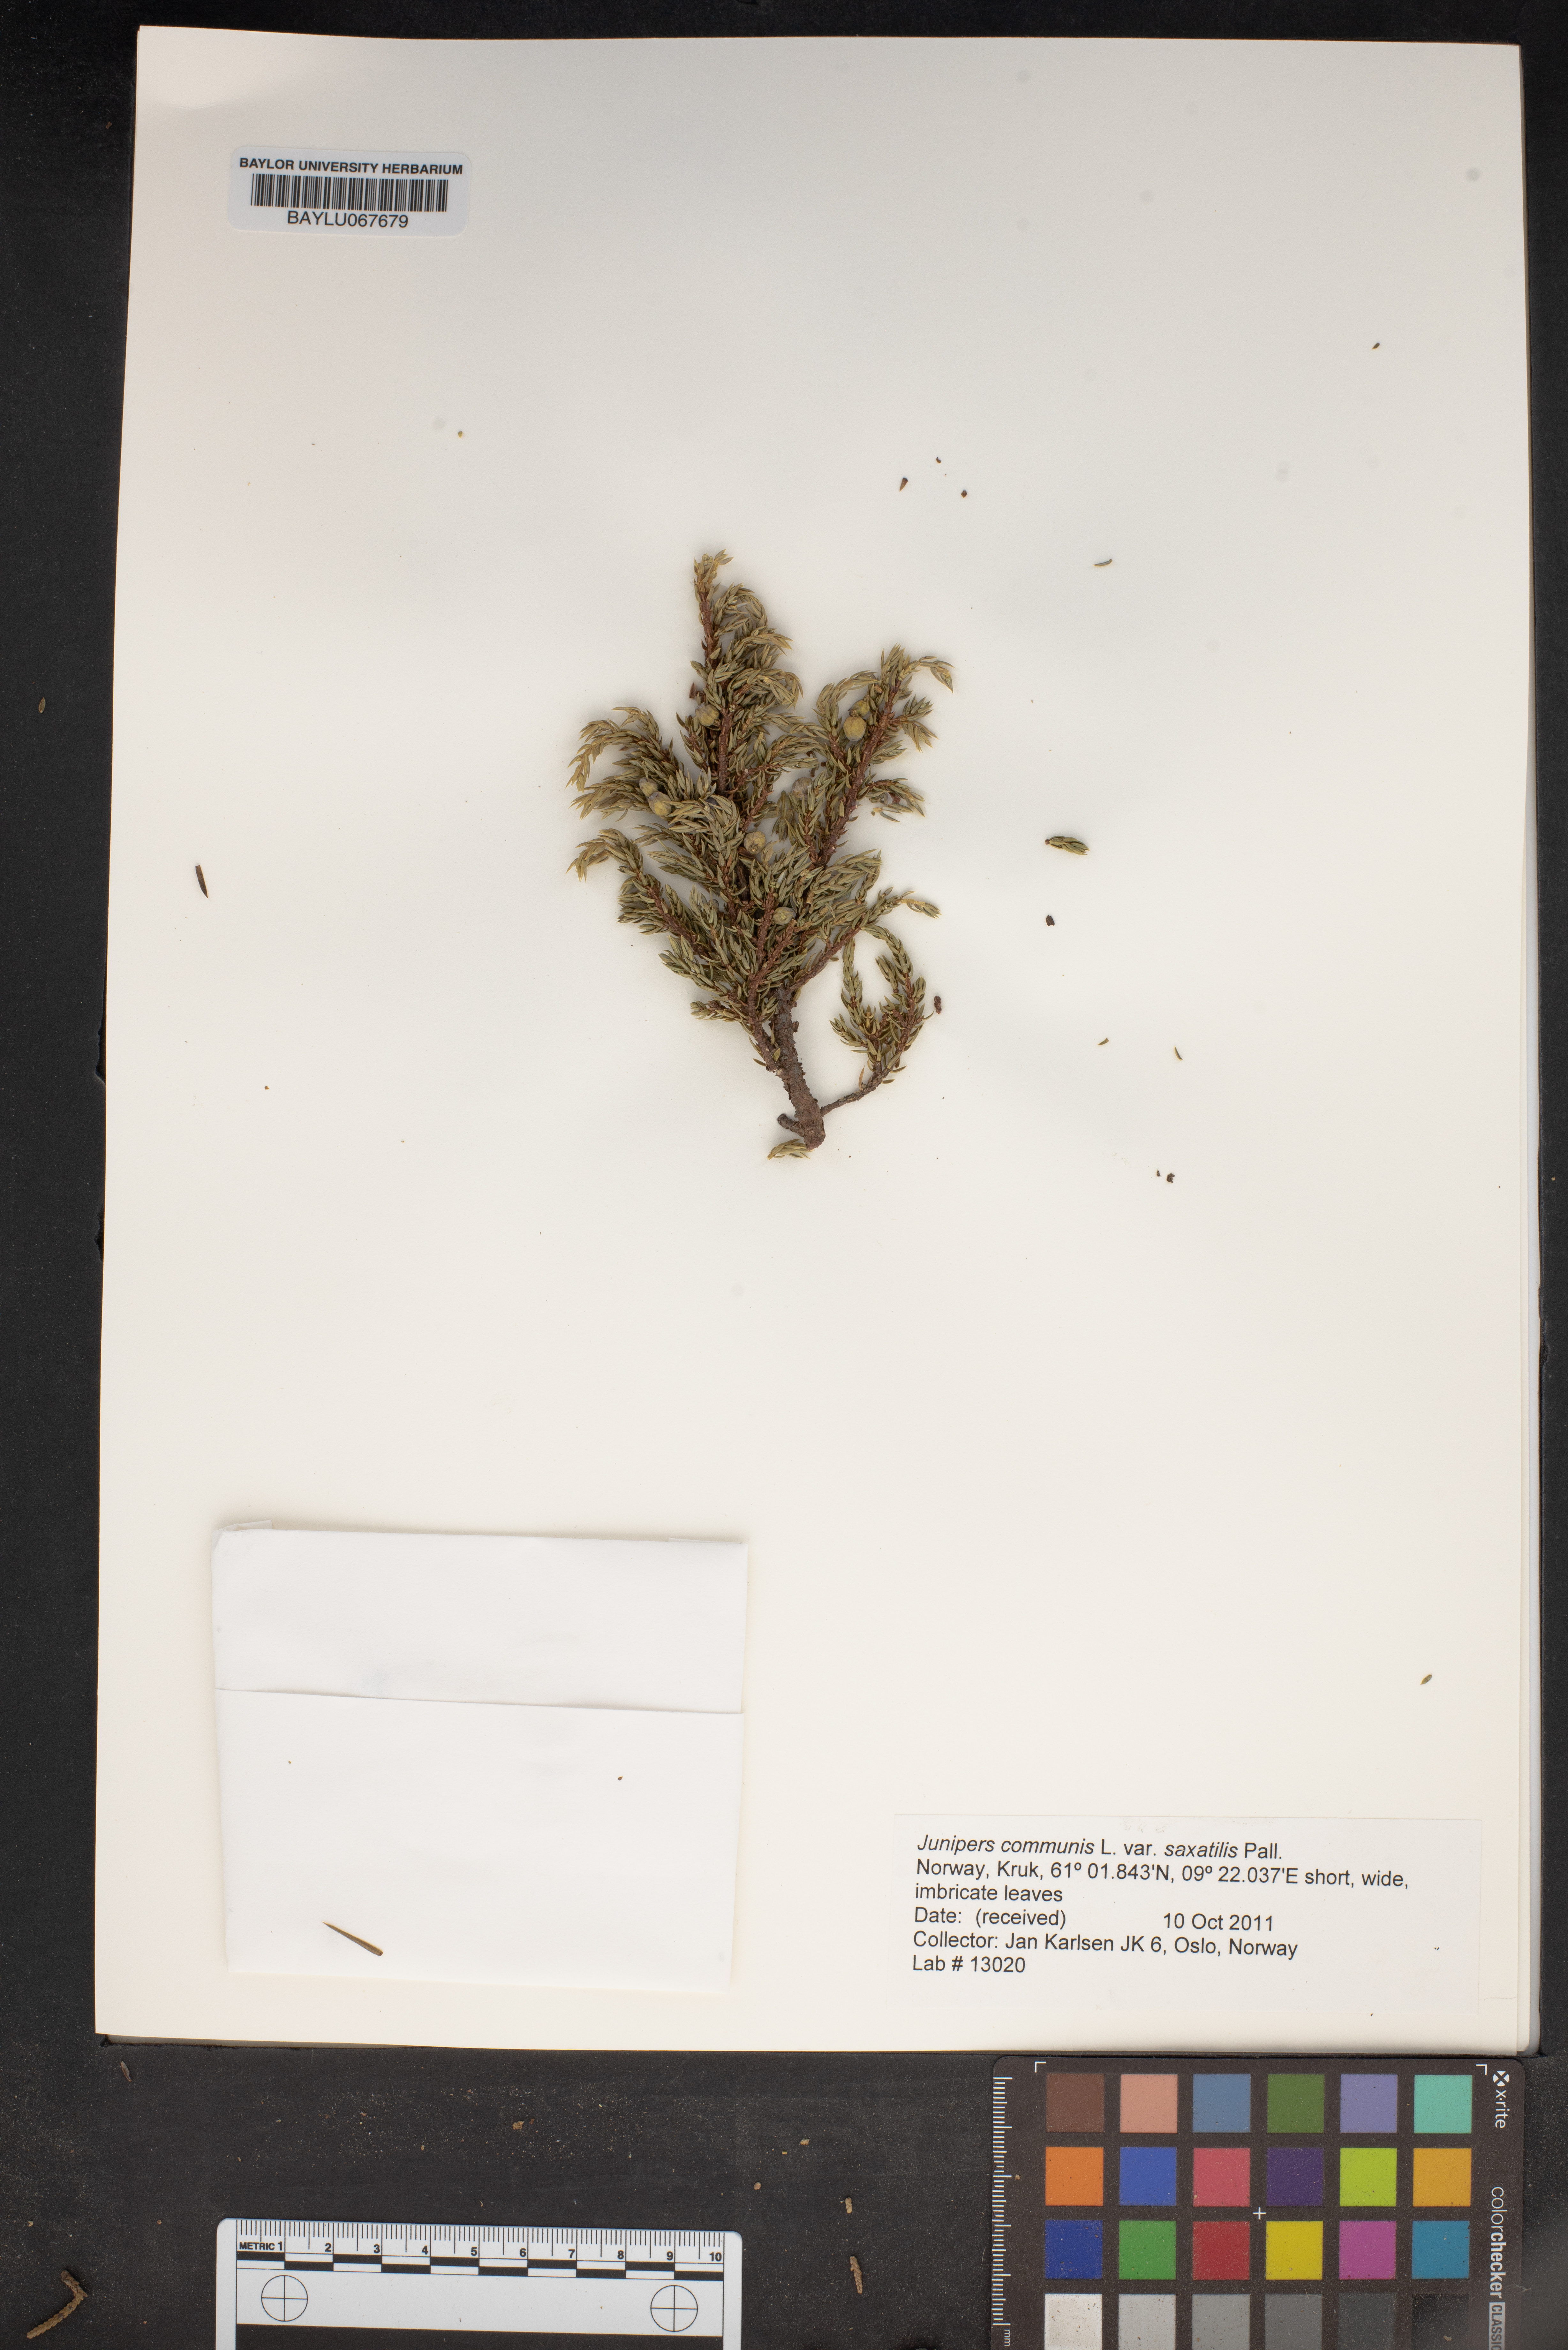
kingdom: Plantae
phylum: Tracheophyta
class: Pinopsida
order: Pinales
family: Cupressaceae
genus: Juniperus
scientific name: Juniperus communis
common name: Common juniper
